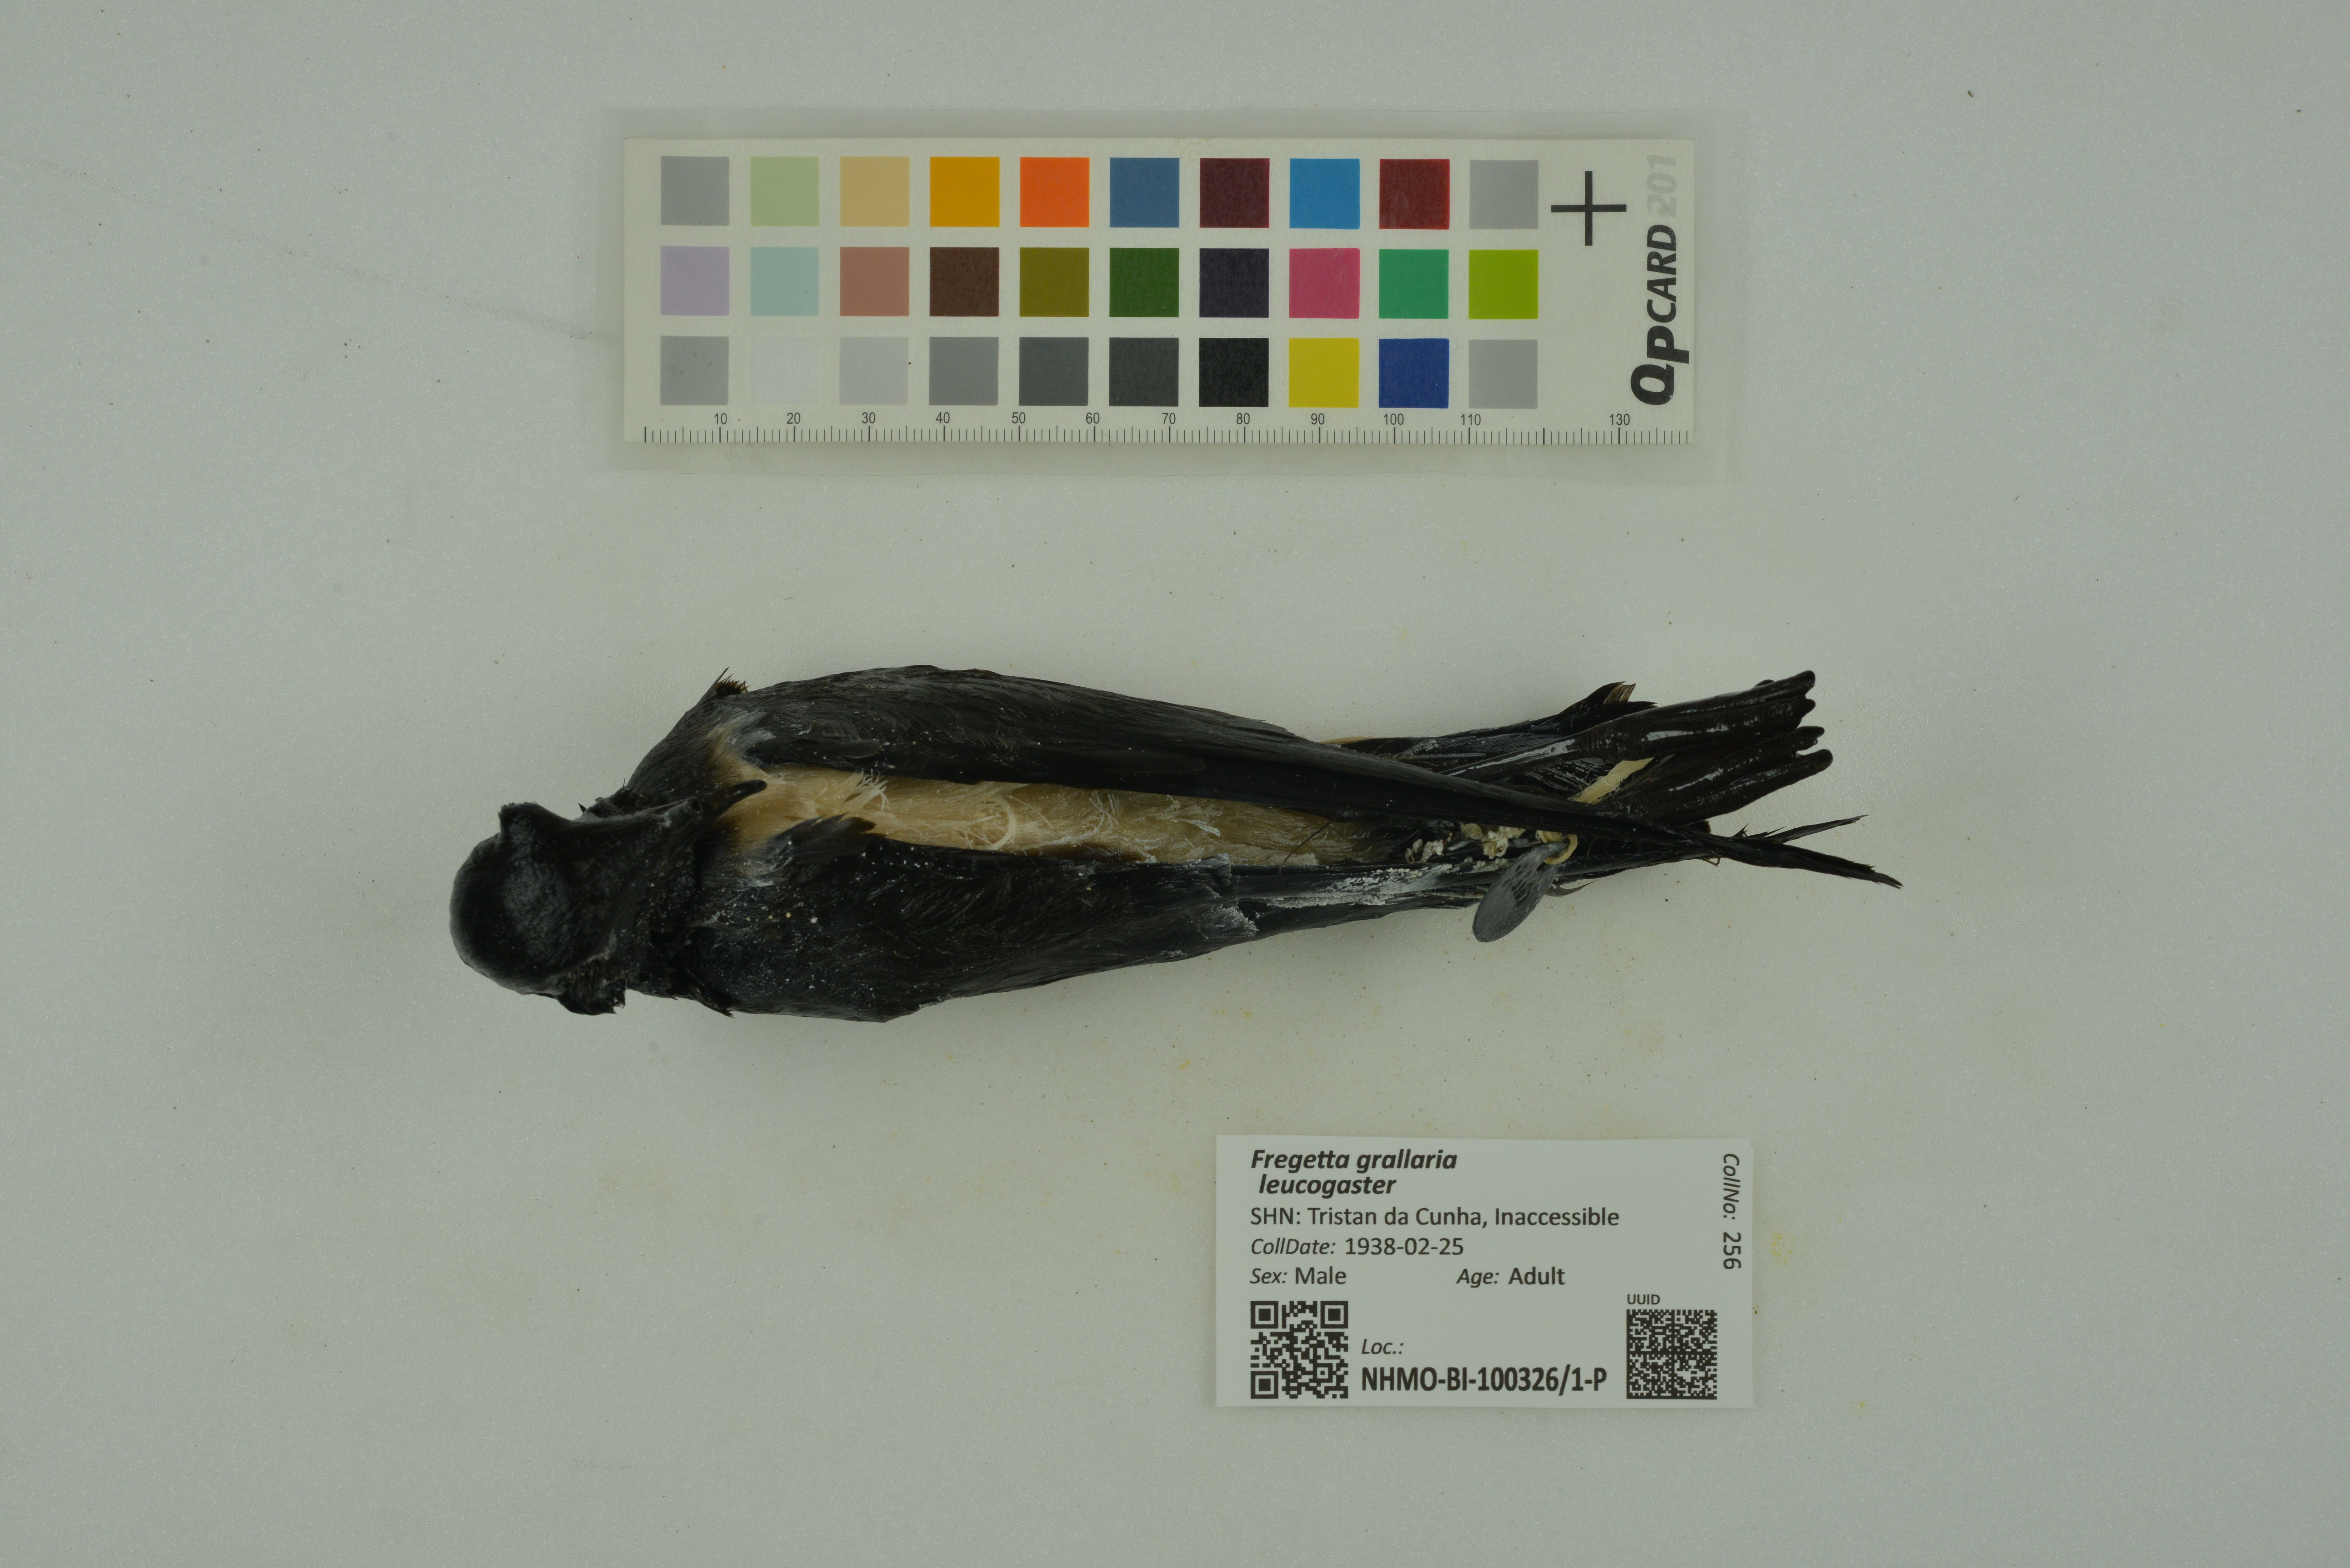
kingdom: Animalia
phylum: Chordata
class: Aves
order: Procellariiformes
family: Hydrobatidae
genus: Fregetta
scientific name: Fregetta grallaria
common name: White-bellied storm-petrel
